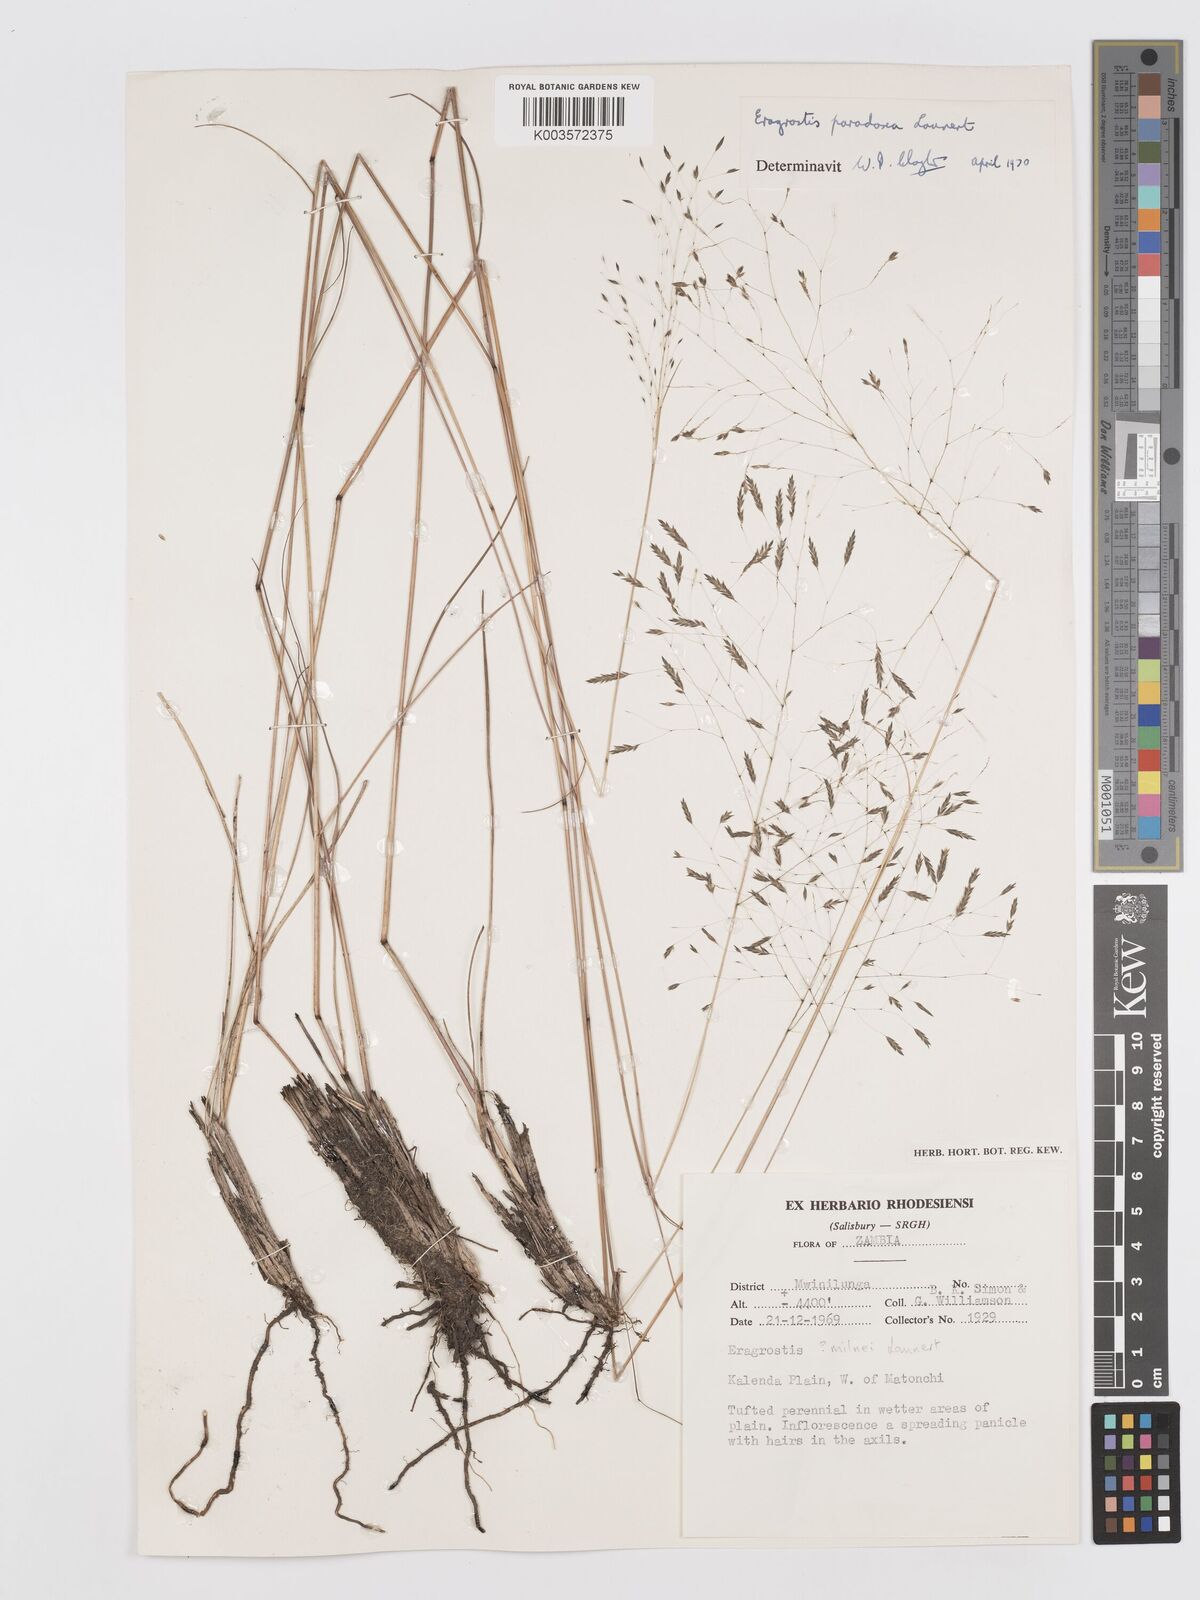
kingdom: Plantae
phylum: Tracheophyta
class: Liliopsida
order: Poales
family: Poaceae
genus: Eragrostis
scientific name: Eragrostis milnei
